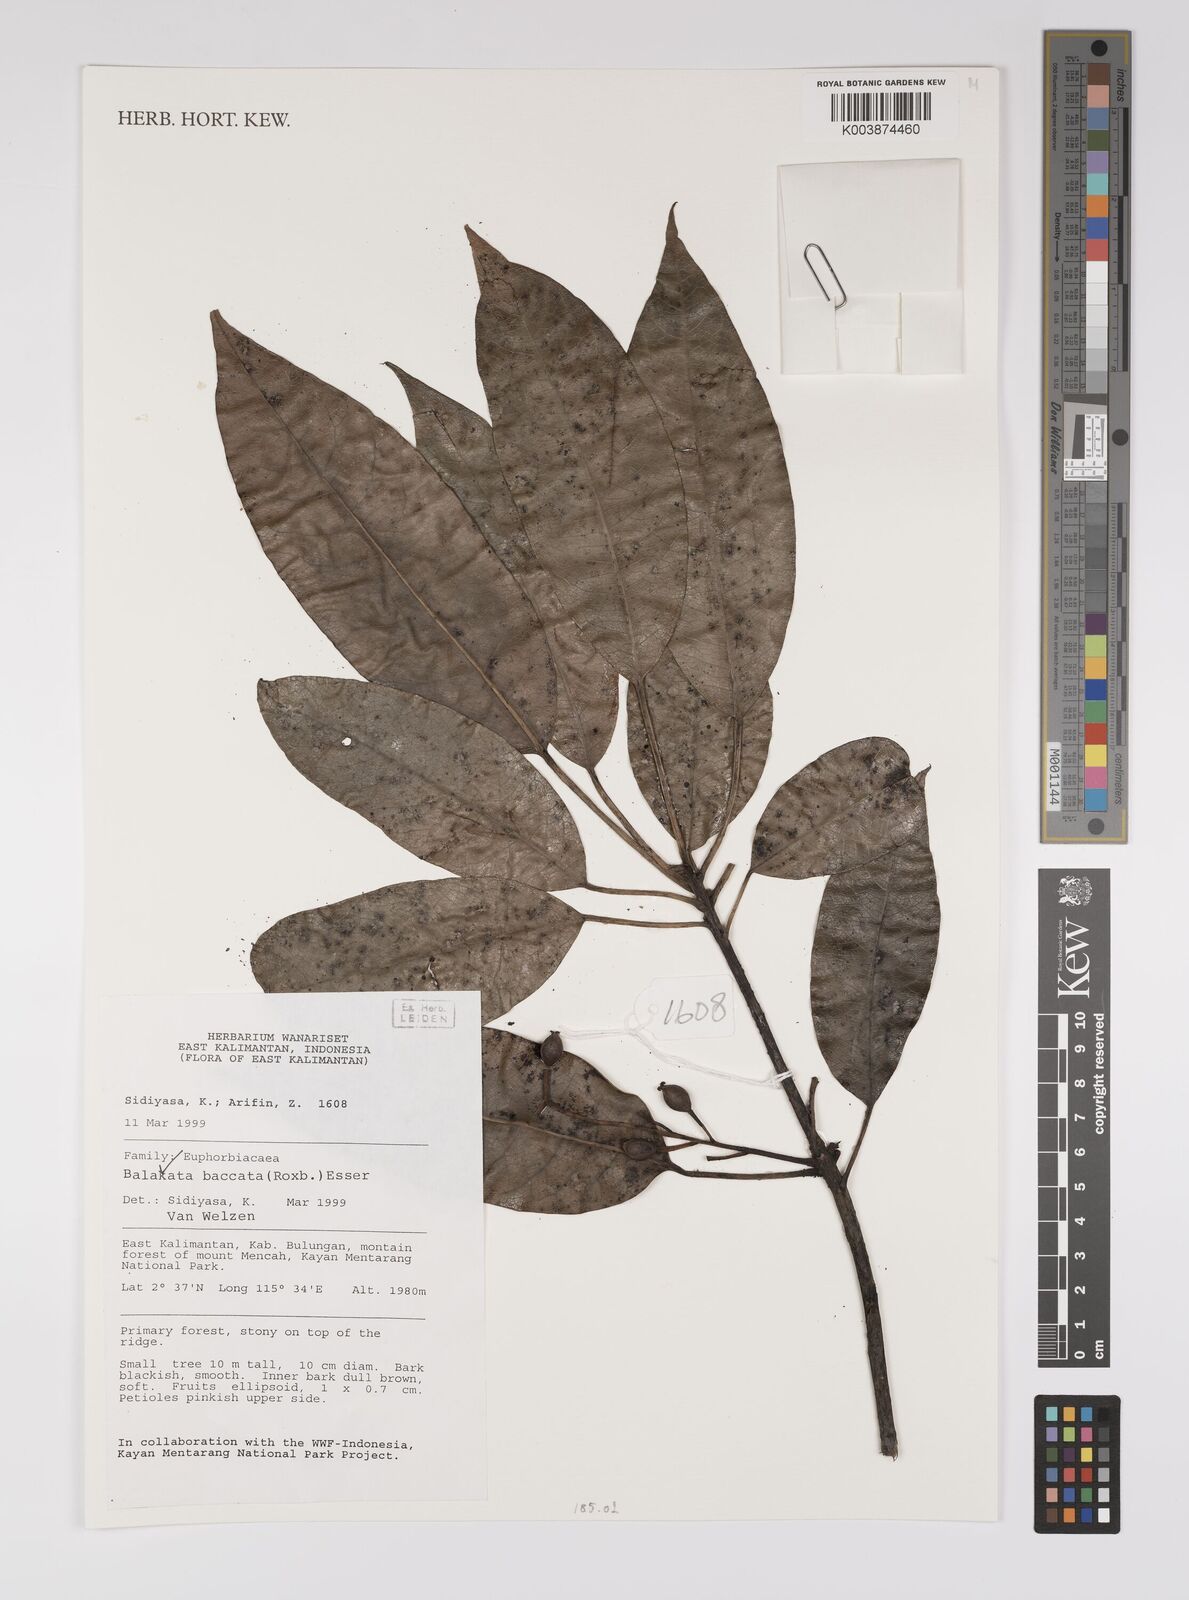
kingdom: Plantae
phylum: Tracheophyta
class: Magnoliopsida
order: Malpighiales
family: Euphorbiaceae
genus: Balakata
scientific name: Balakata baccata
